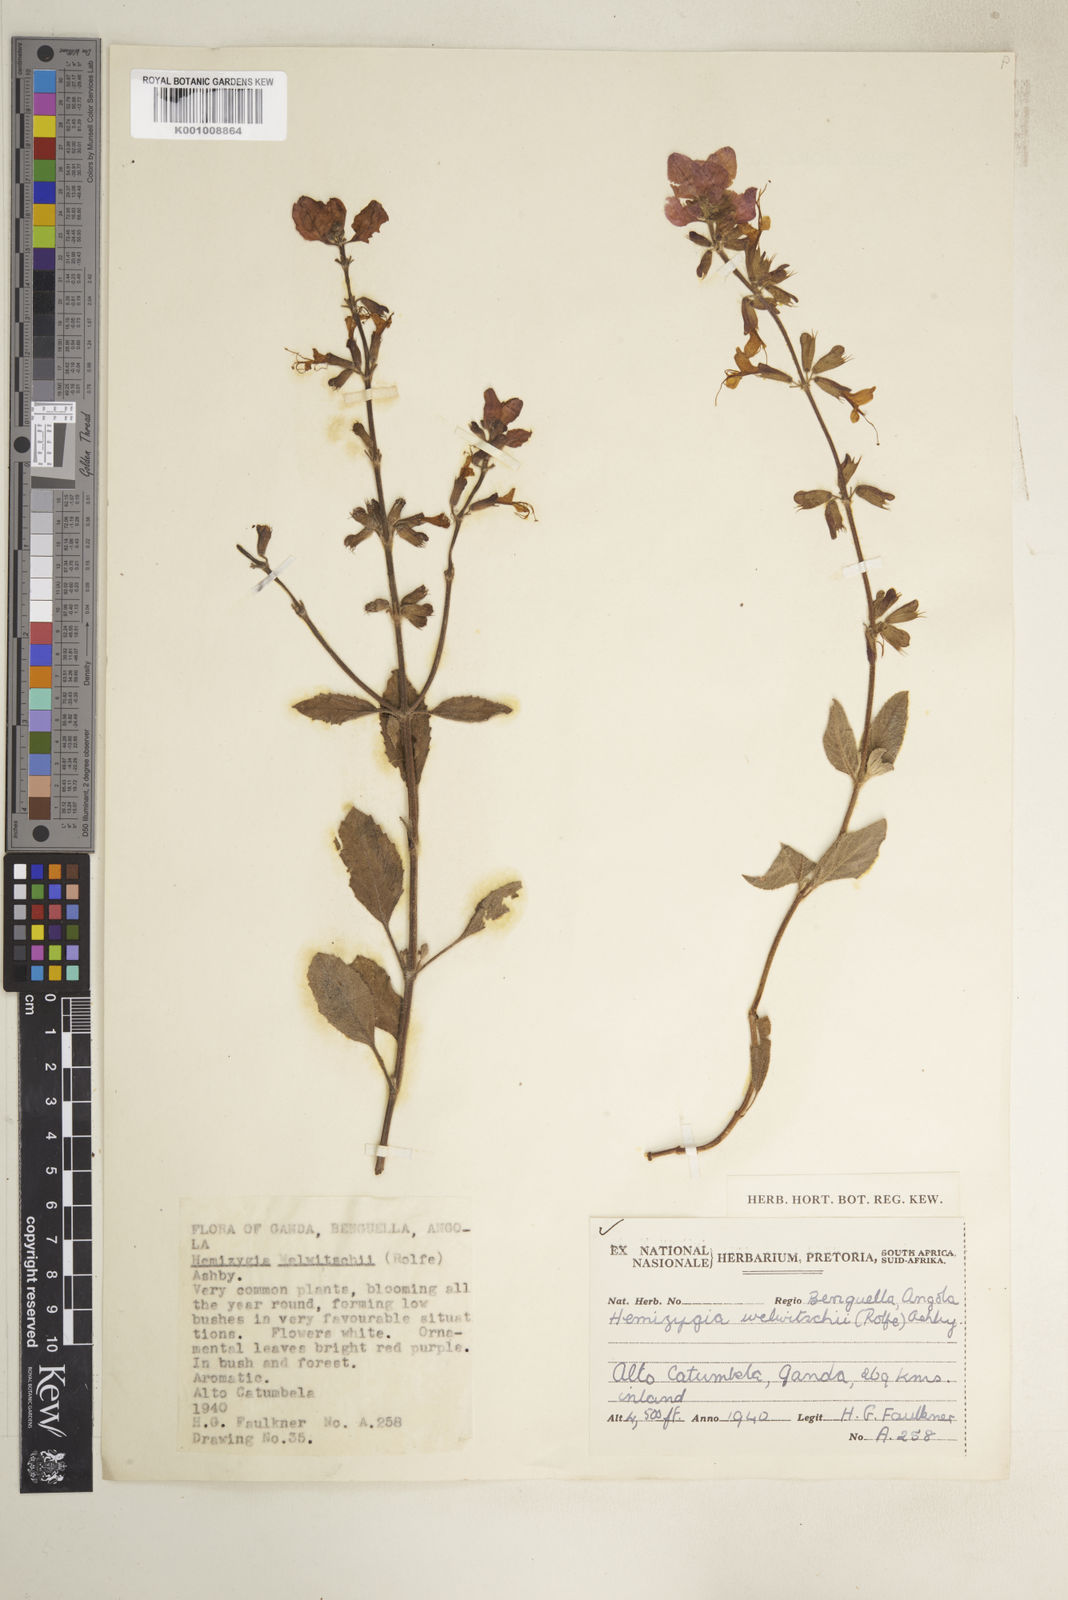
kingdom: Plantae
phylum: Tracheophyta
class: Magnoliopsida
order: Lamiales
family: Lamiaceae
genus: Syncolostemon
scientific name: Syncolostemon welwitschii
